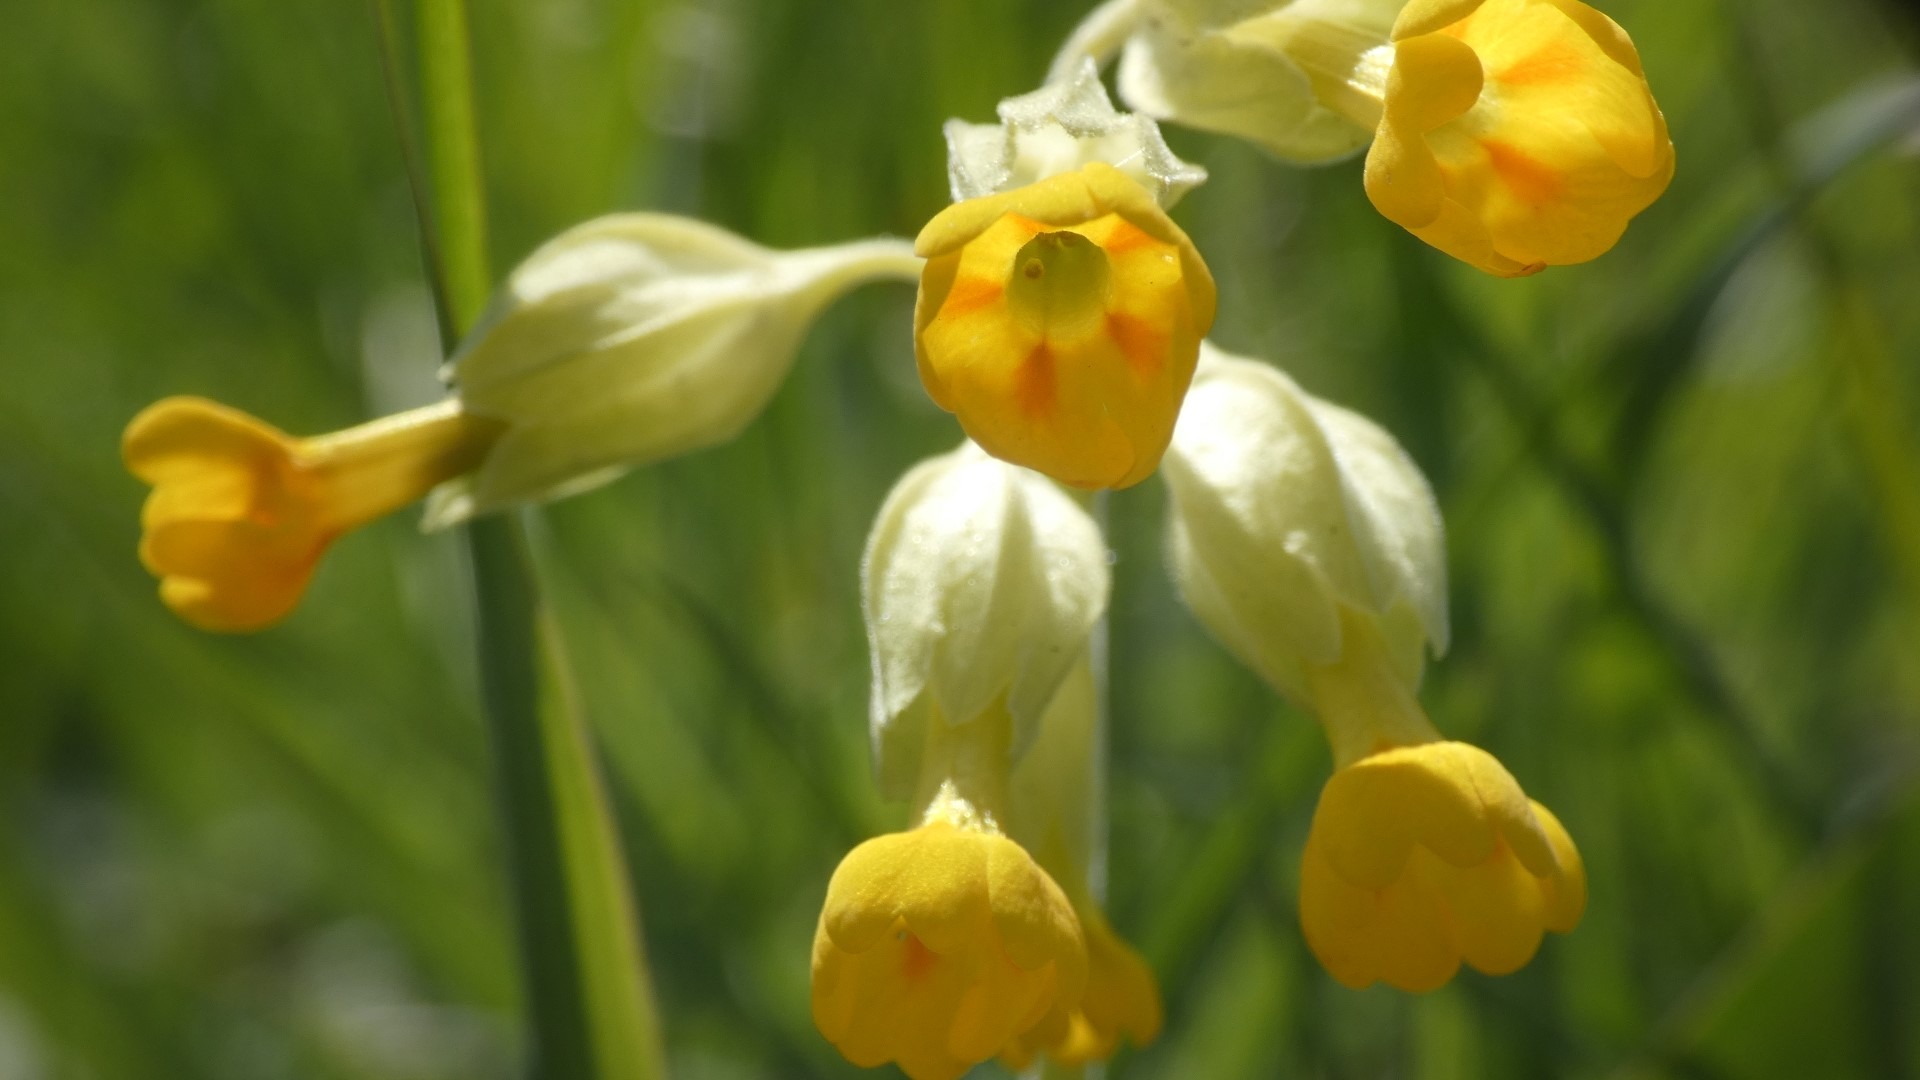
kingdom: Plantae
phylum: Tracheophyta
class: Magnoliopsida
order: Ericales
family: Primulaceae
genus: Primula
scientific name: Primula veris
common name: Hulkravet kodriver
